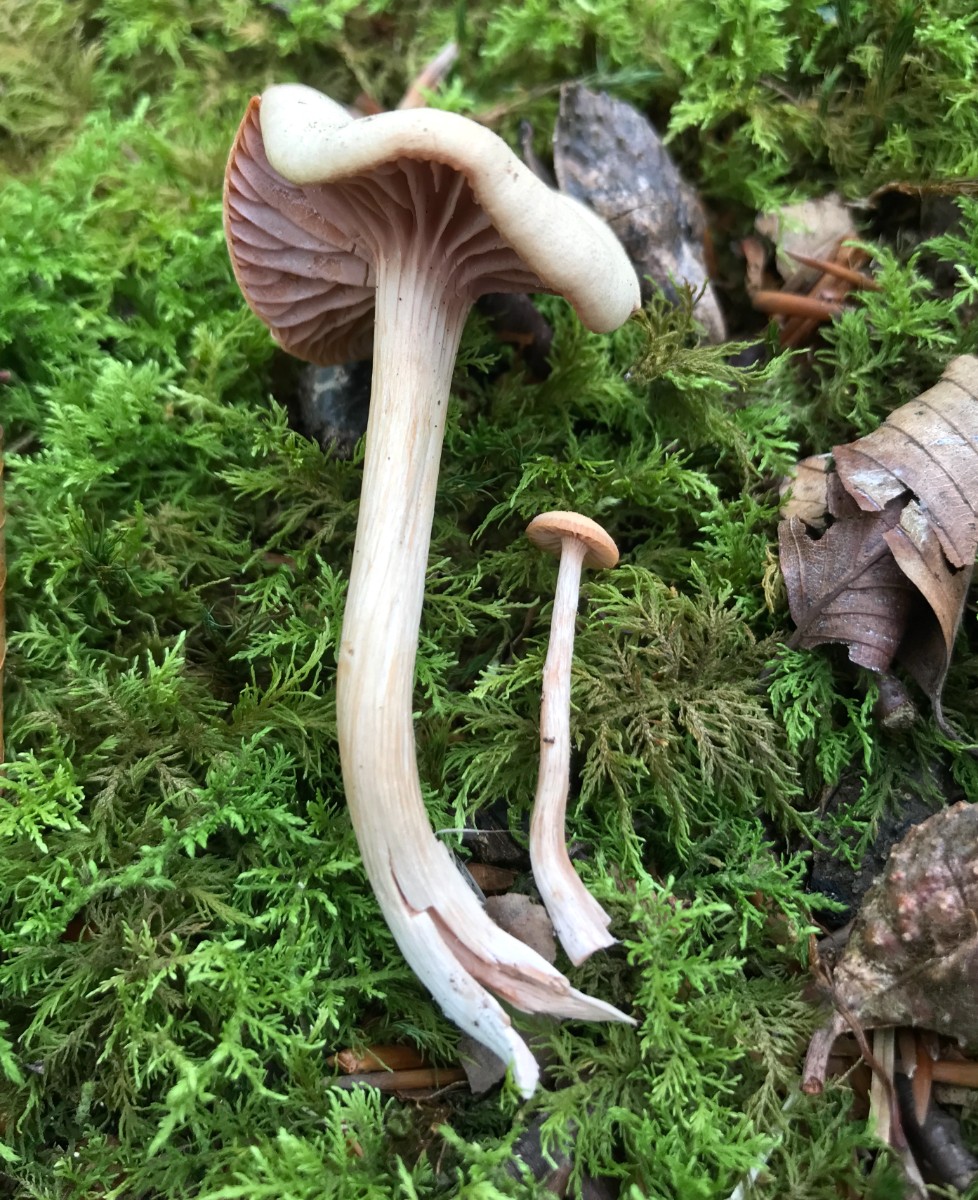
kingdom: Fungi
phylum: Basidiomycota
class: Agaricomycetes
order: Agaricales
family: Hydnangiaceae
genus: Laccaria
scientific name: Laccaria laccata
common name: rød ametysthat
